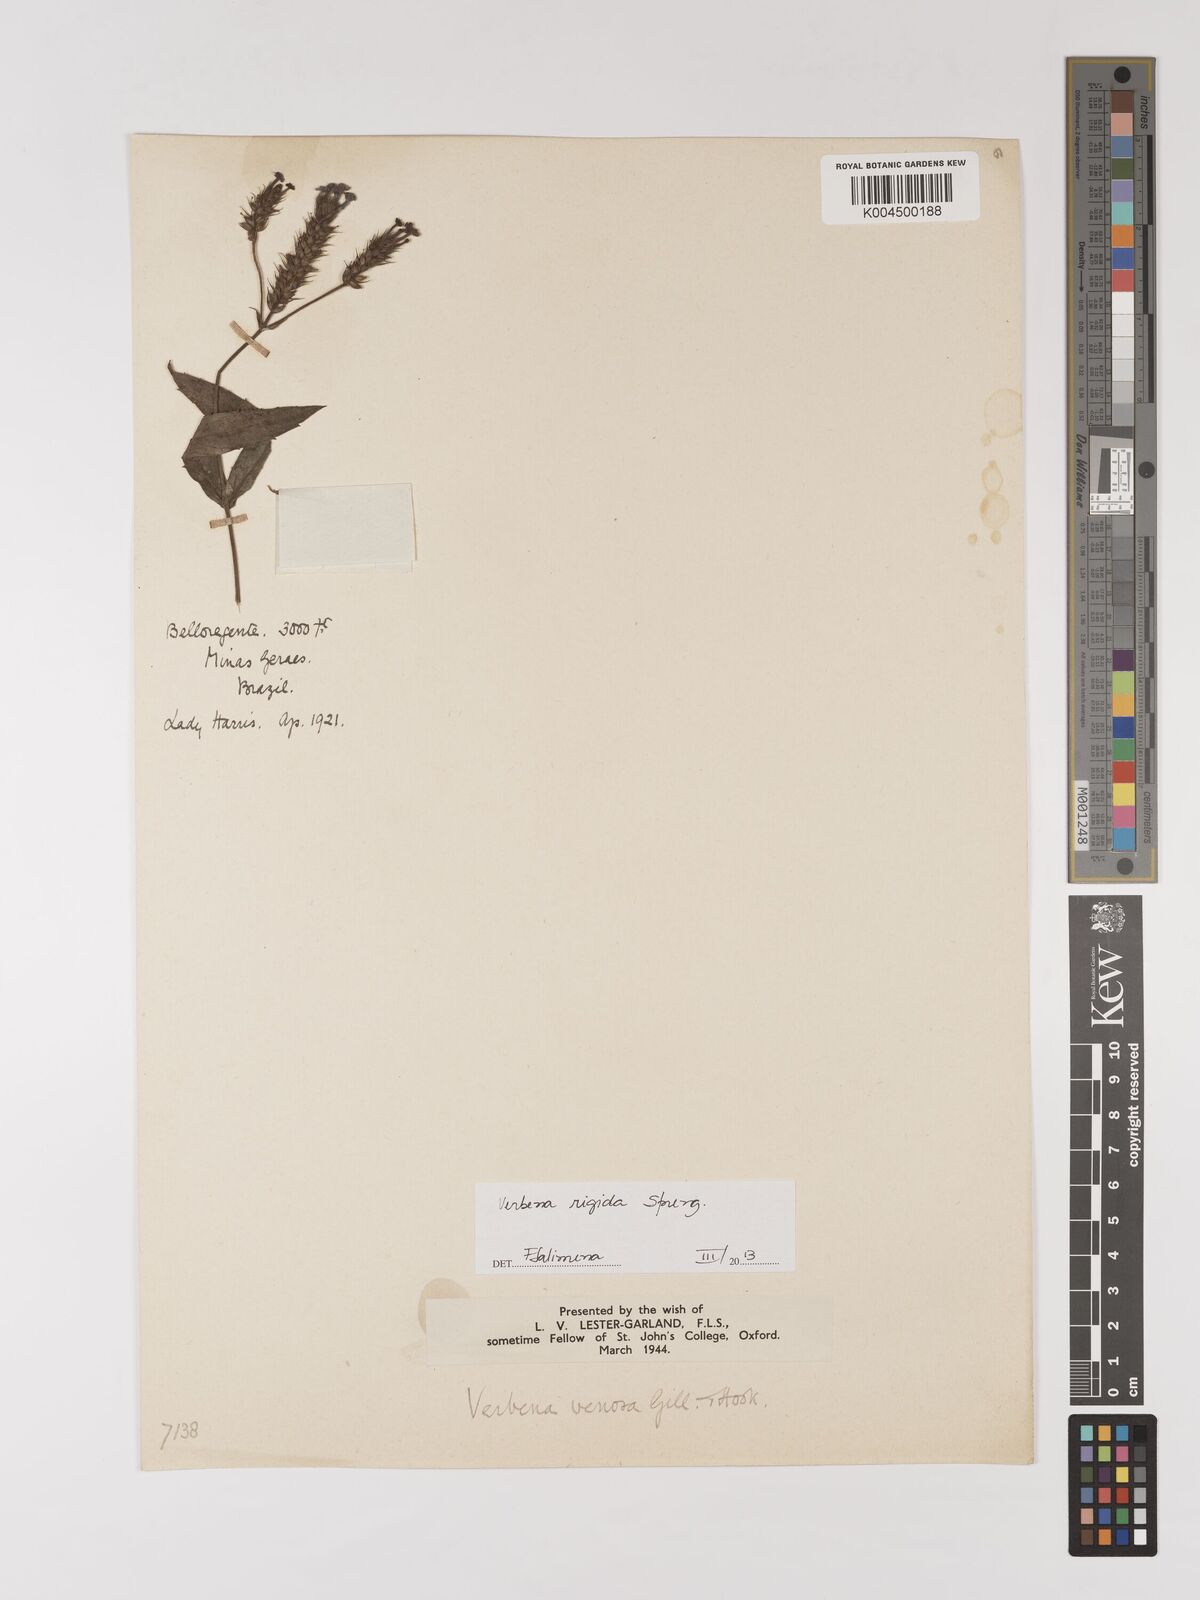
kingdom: Plantae
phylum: Tracheophyta
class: Magnoliopsida
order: Lamiales
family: Verbenaceae
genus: Verbena
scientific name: Verbena rigida
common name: Slender vervain
